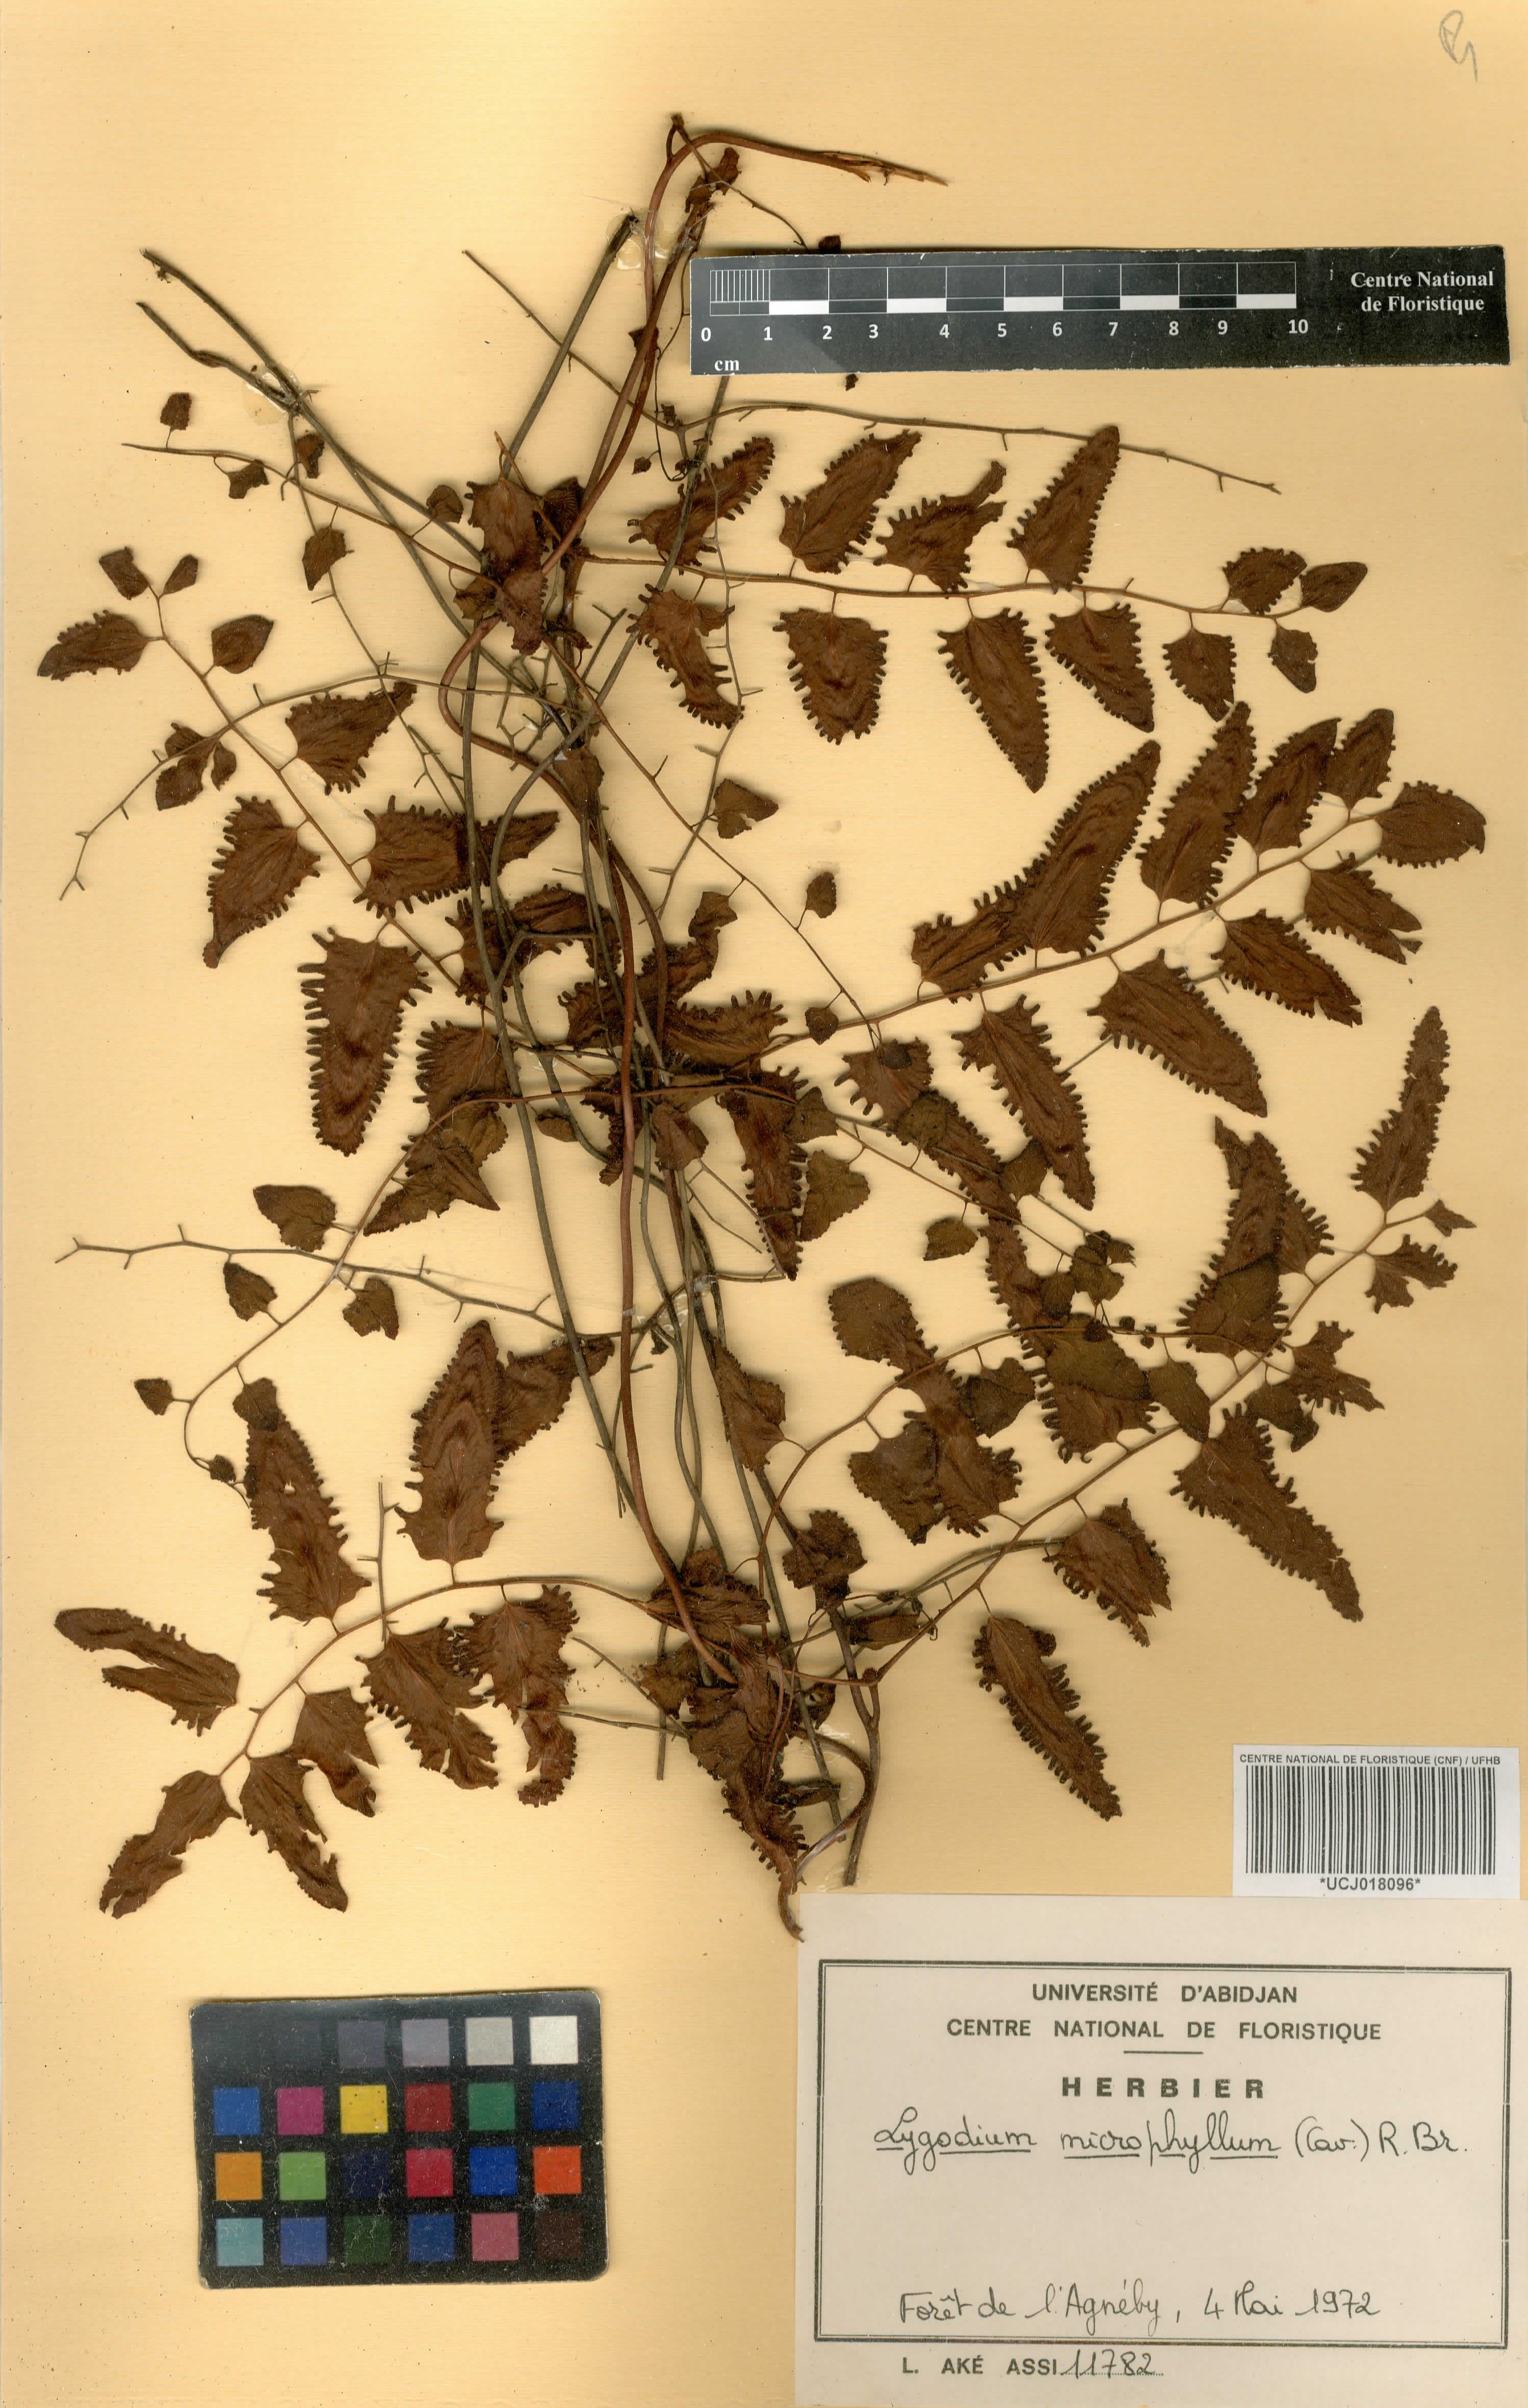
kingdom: Plantae
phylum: Tracheophyta
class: Polypodiopsida
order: Schizaeales
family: Lygodiaceae
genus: Lygodium
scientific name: Lygodium microphyllum
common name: Small-leaf climbing fern
